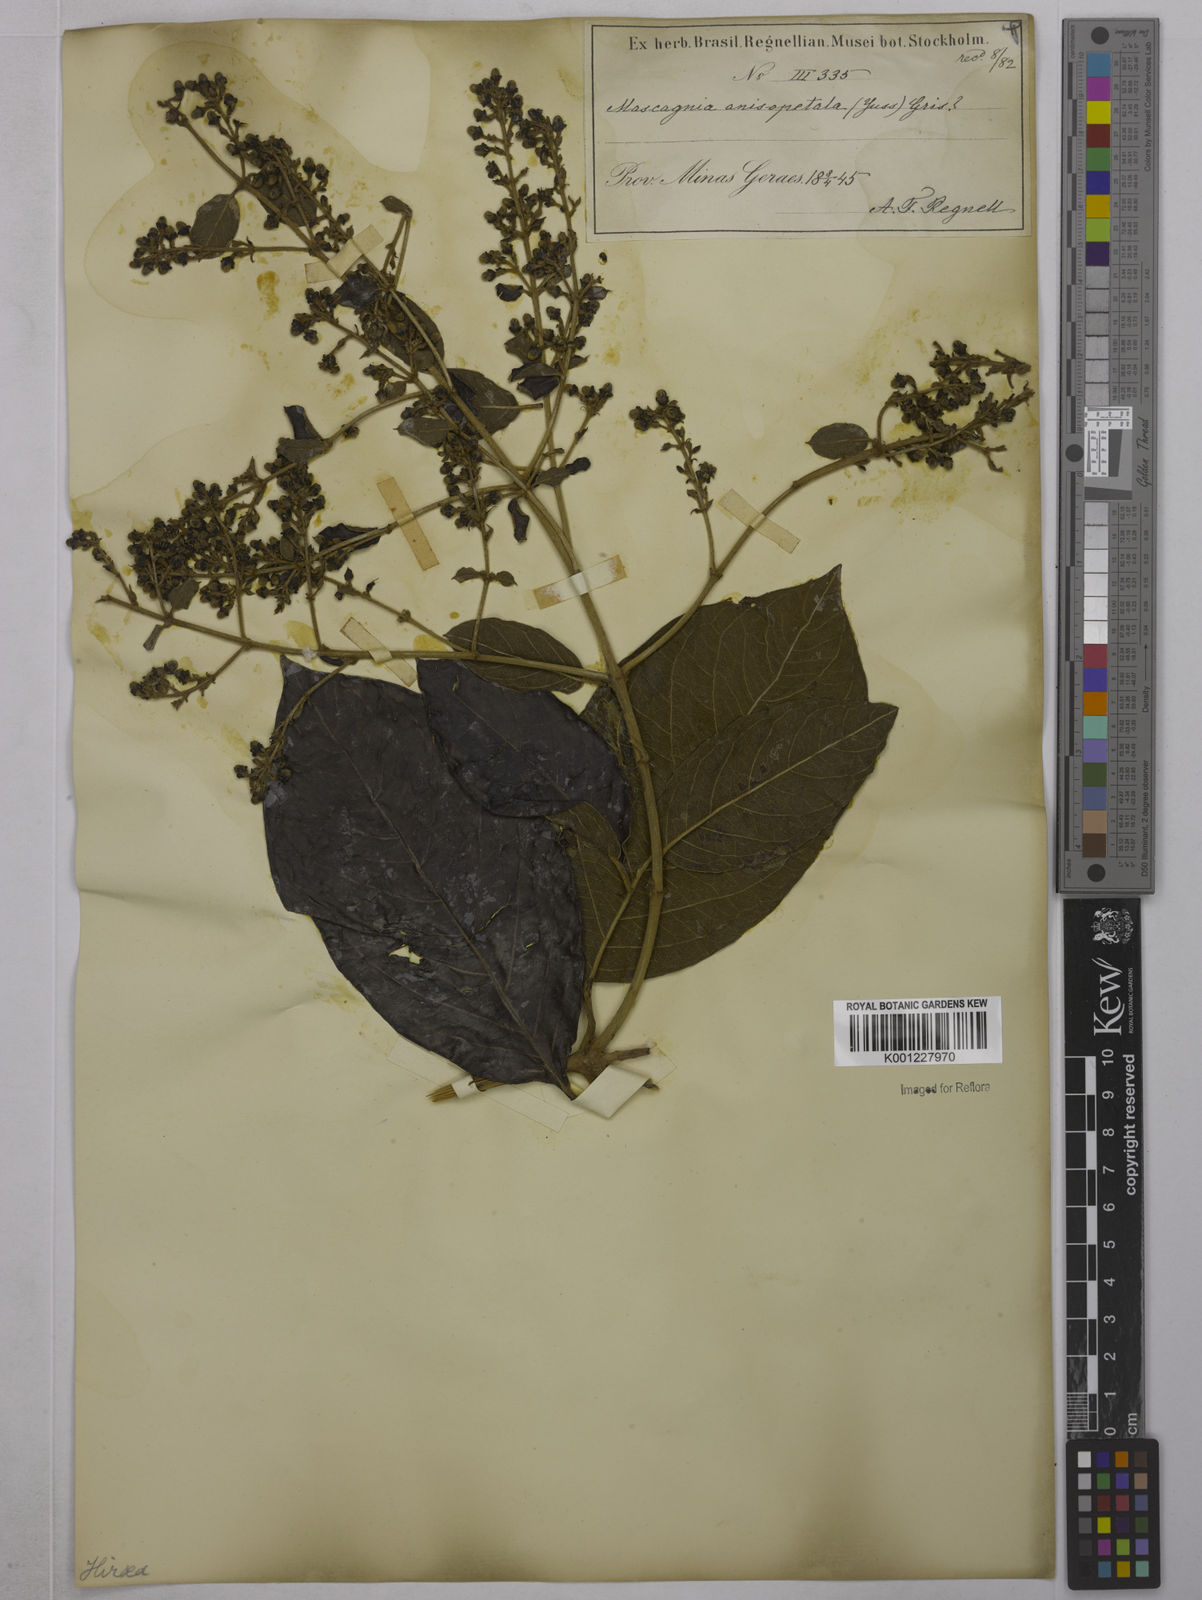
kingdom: Plantae
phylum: Tracheophyta
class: Magnoliopsida
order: Malpighiales
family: Malpighiaceae
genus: Alicia
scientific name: Alicia anisopetala
